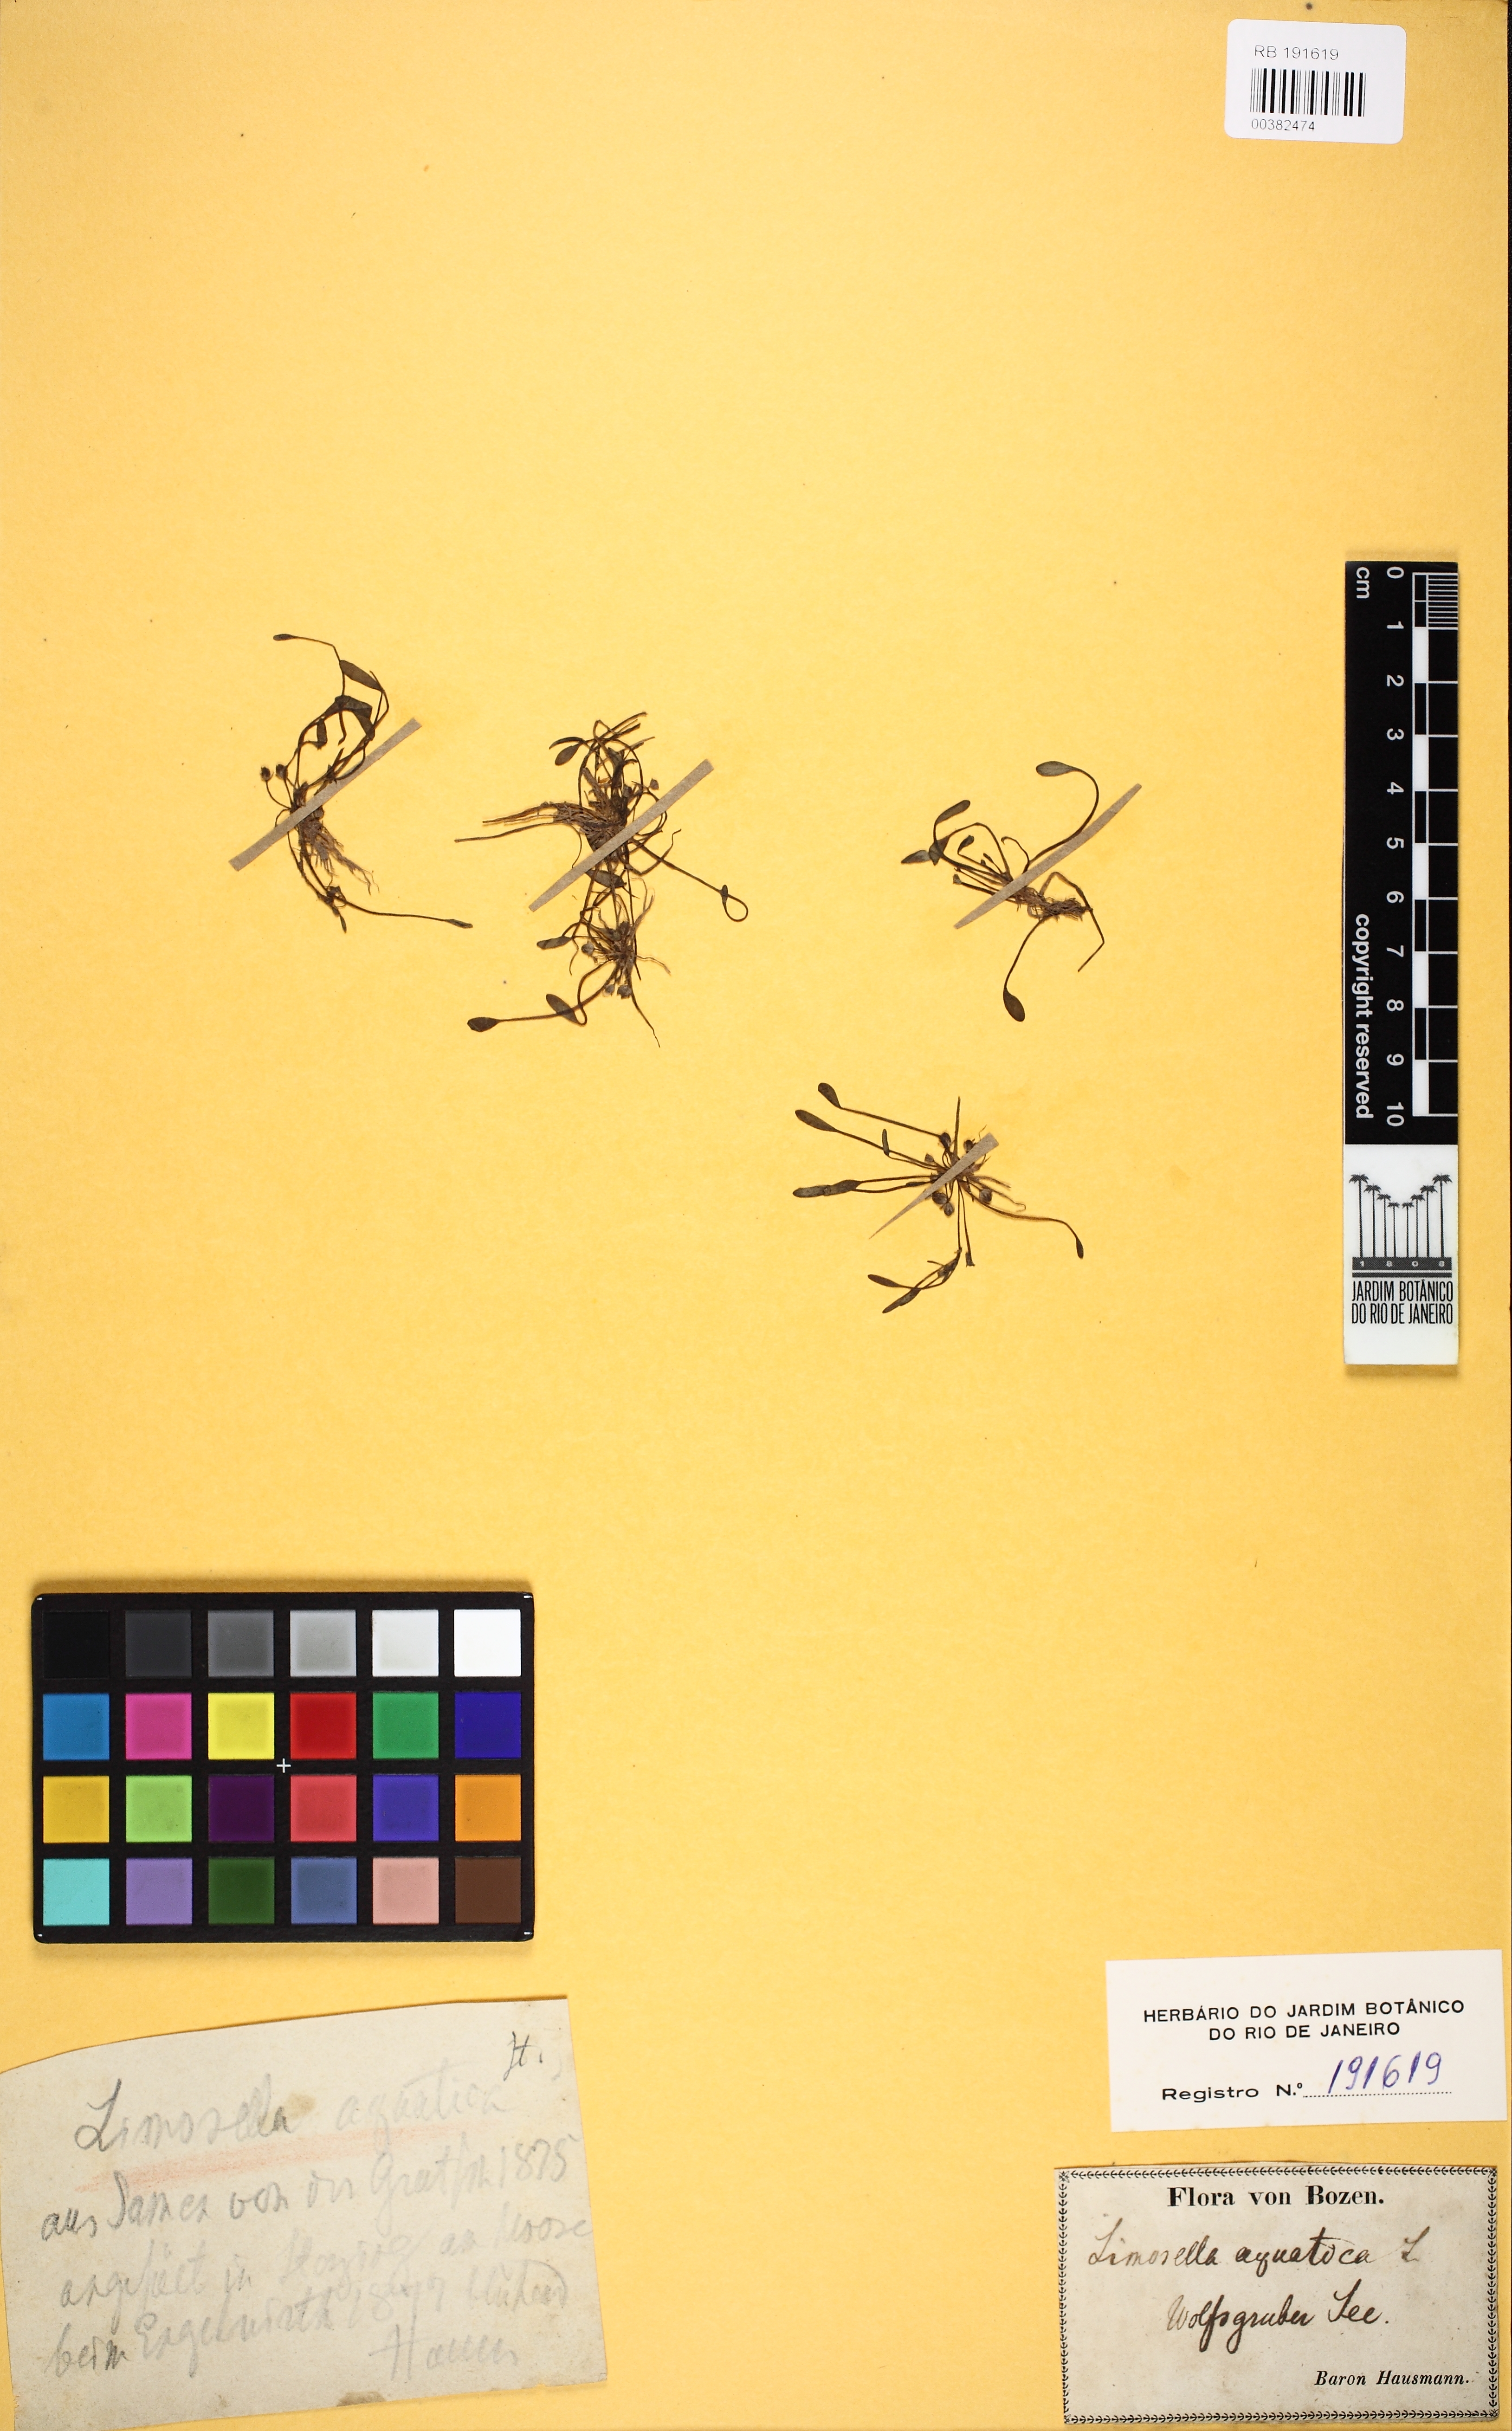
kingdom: Plantae
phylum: Tracheophyta
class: Magnoliopsida
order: Lamiales
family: Scrophulariaceae
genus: Limosella
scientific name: Limosella aquatica
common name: Mudwort
